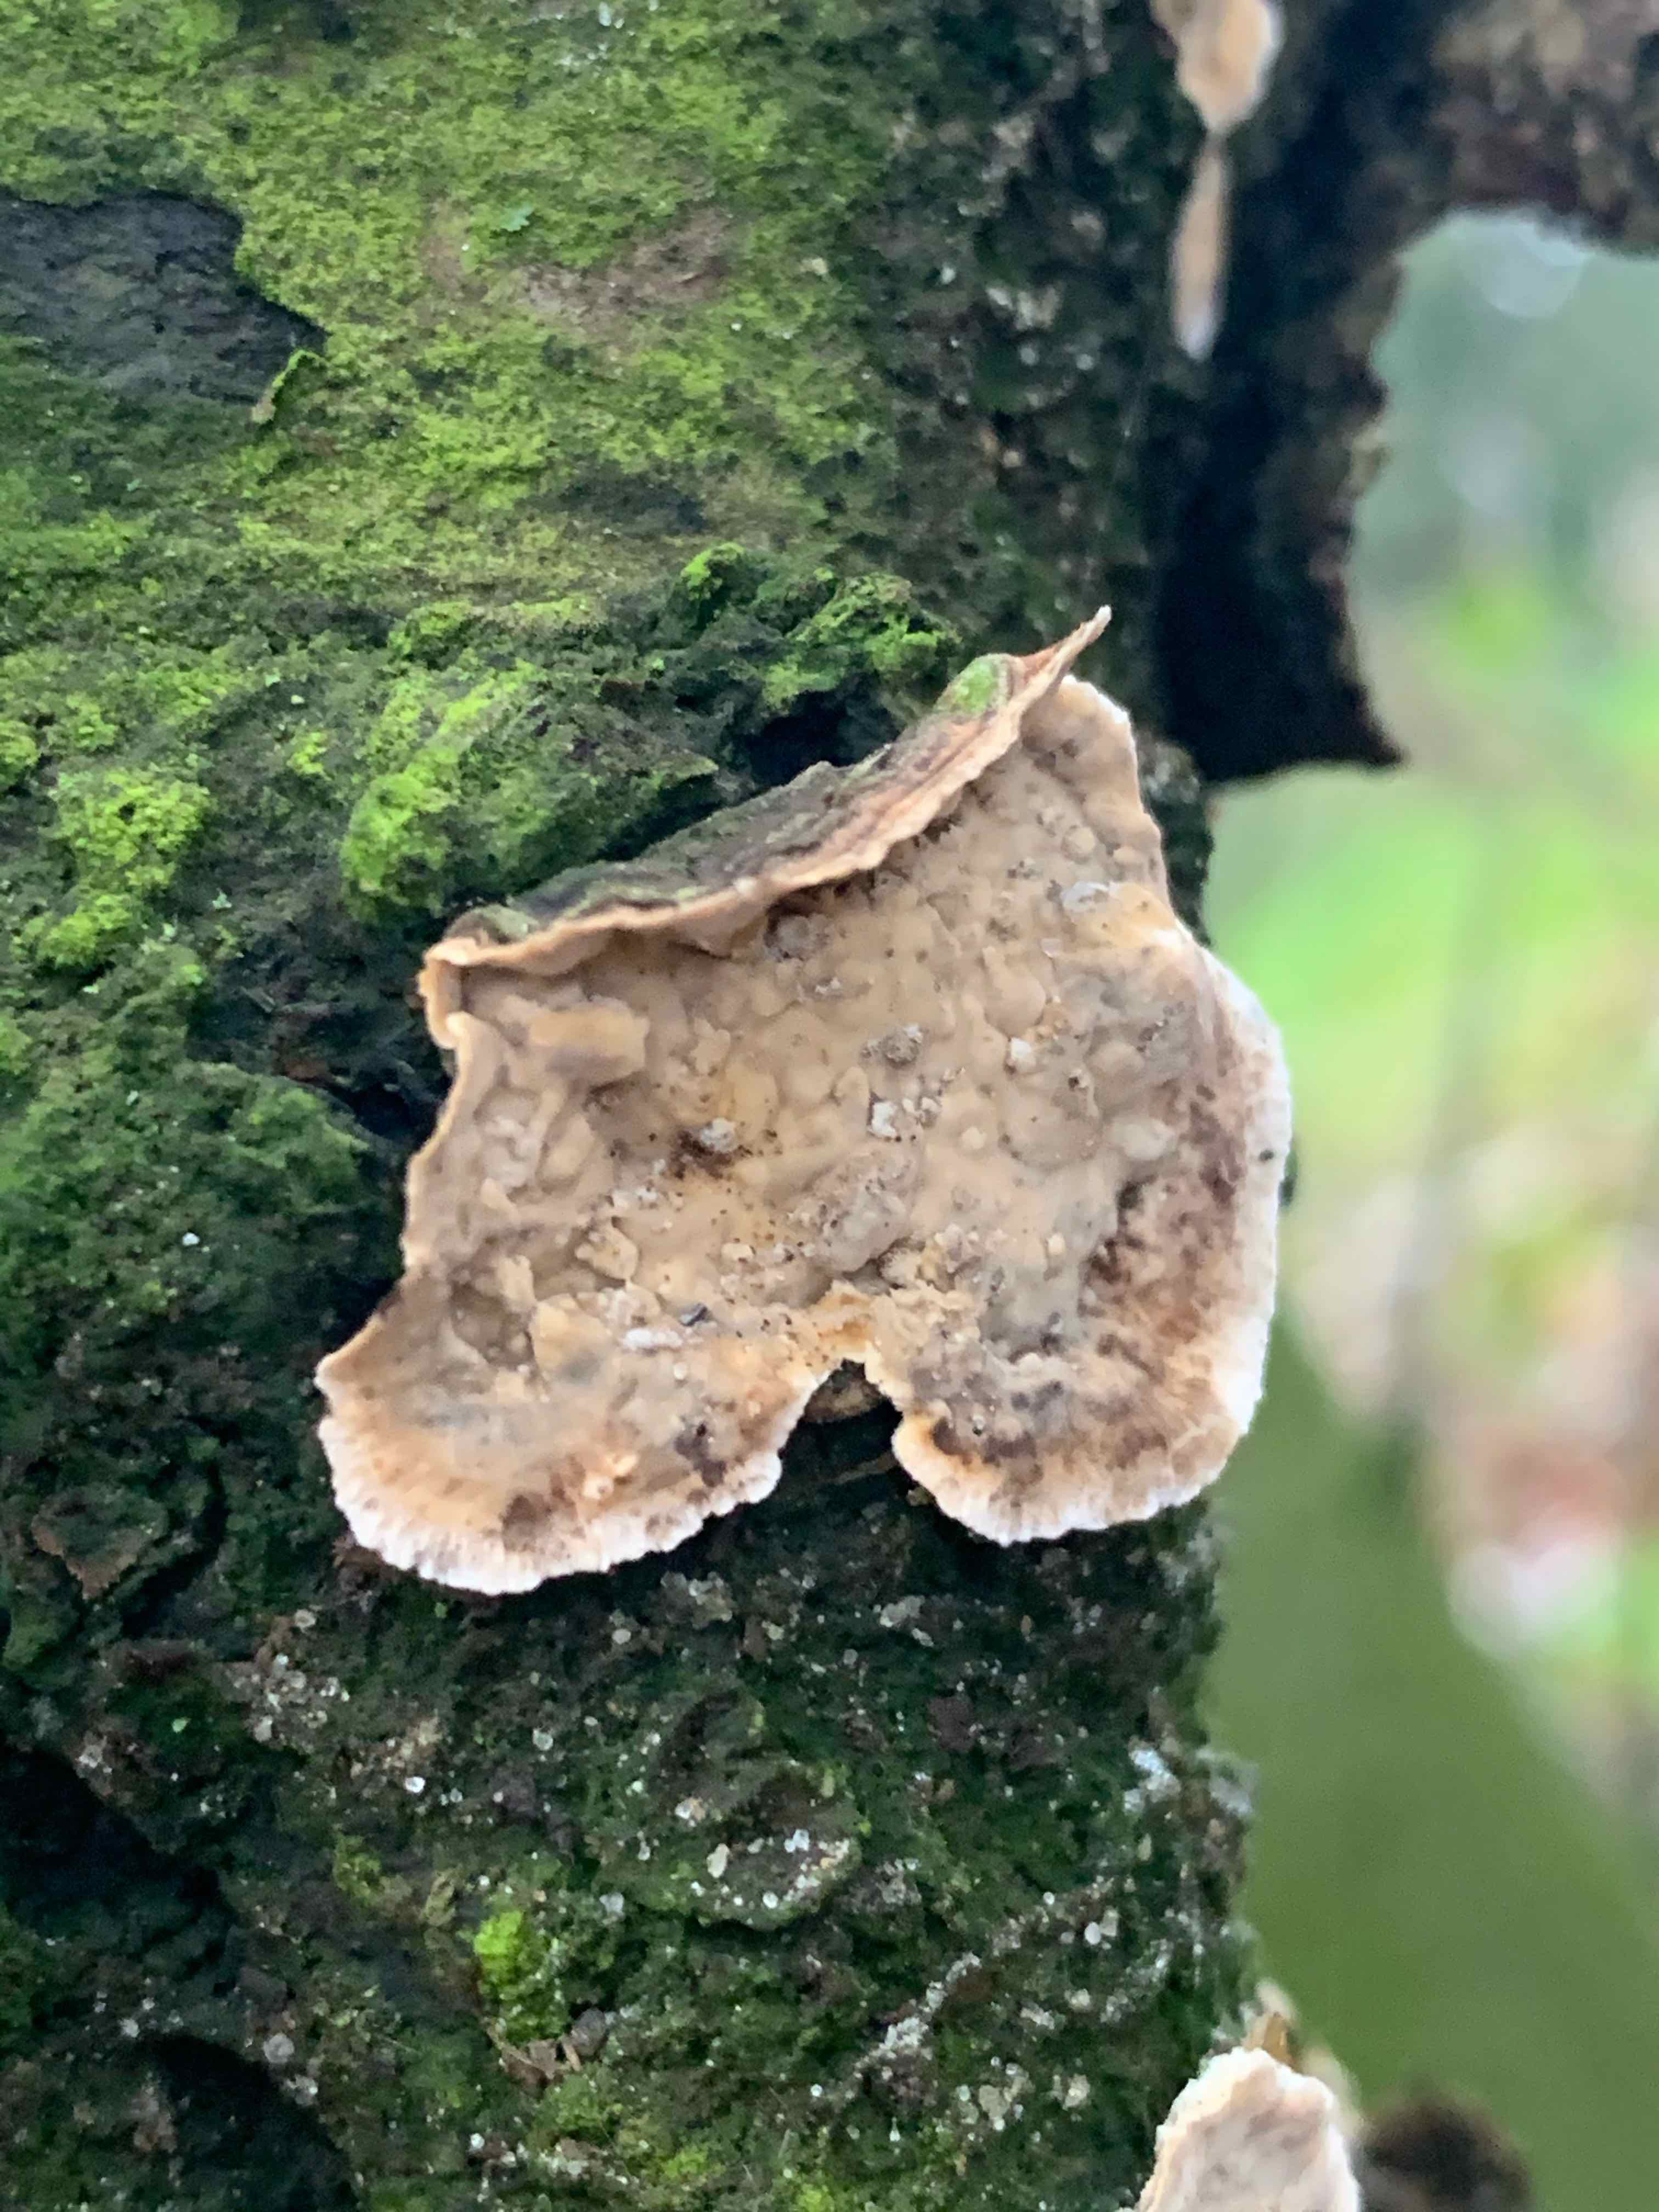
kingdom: Fungi
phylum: Basidiomycota
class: Agaricomycetes
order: Russulales
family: Stereaceae
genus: Stereum
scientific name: Stereum rugosum
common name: rynket lædersvamp
